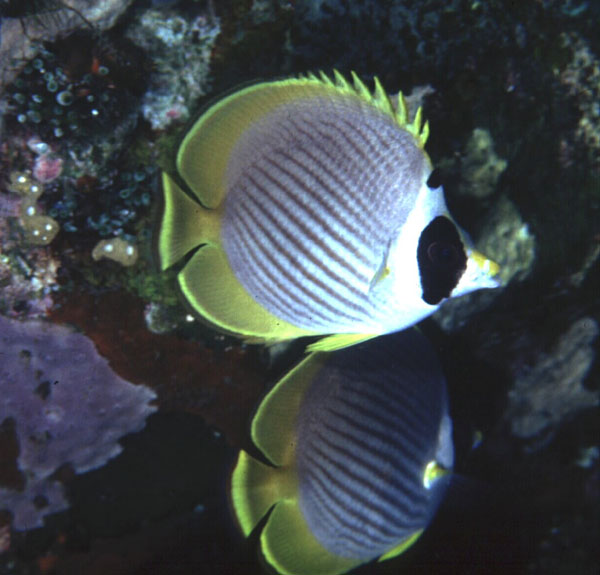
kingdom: Animalia
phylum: Chordata
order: Perciformes
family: Chaetodontidae
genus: Chaetodon
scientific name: Chaetodon adiergastos
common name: Eye-patch butterflyfish
